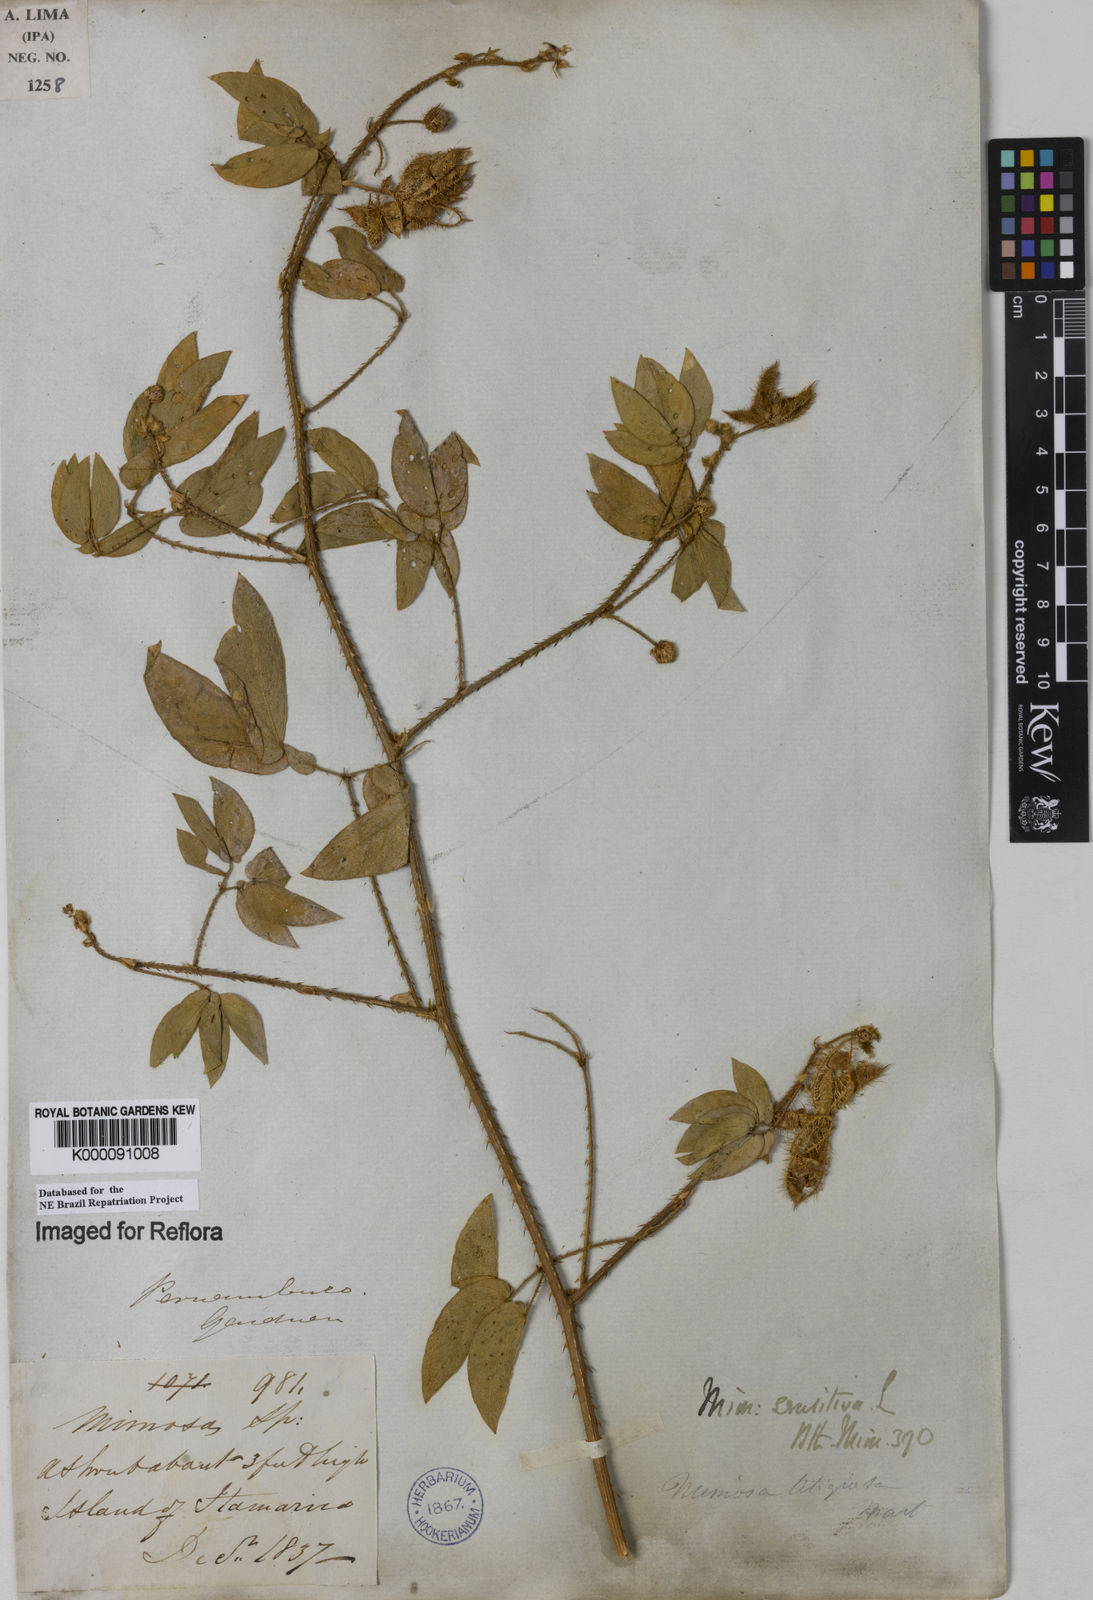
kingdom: Plantae
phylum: Tracheophyta
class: Magnoliopsida
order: Fabales
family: Fabaceae
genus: Mimosa
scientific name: Mimosa sensitiva
